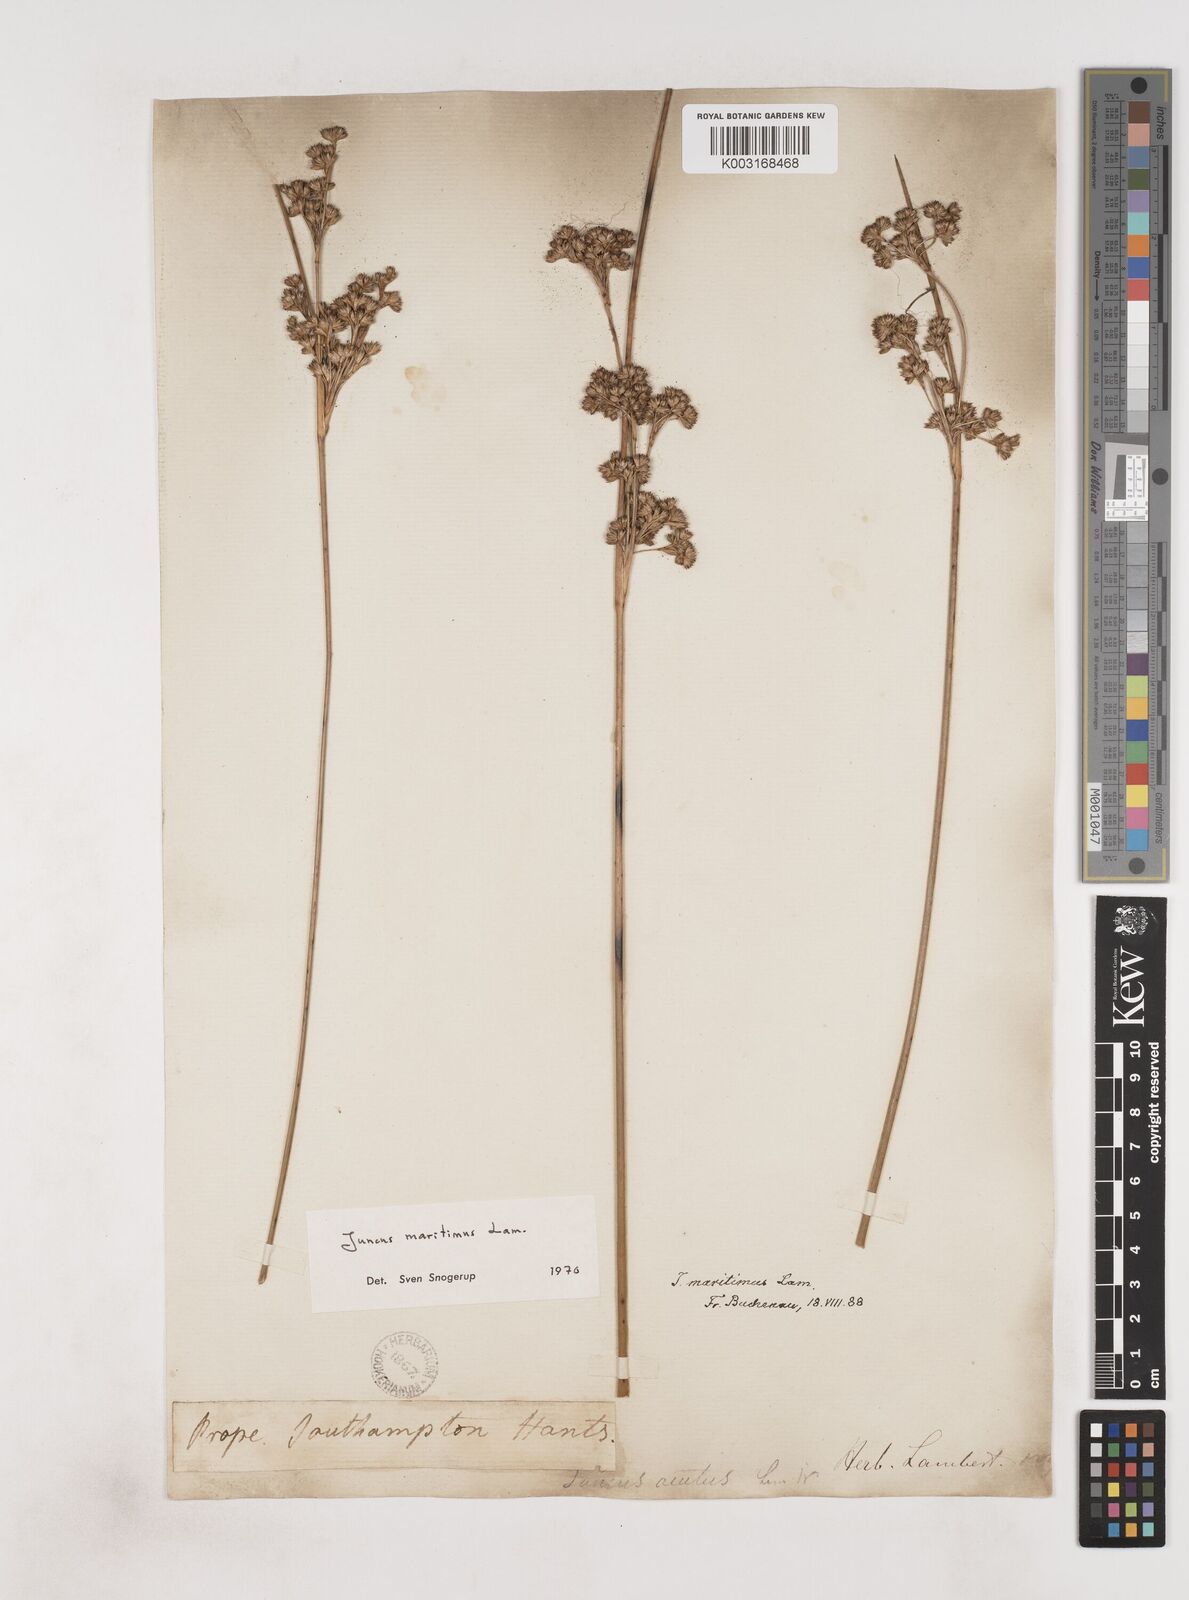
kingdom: Plantae
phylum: Tracheophyta
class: Liliopsida
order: Poales
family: Juncaceae
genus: Juncus
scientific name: Juncus maritimus
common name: Sea rush
